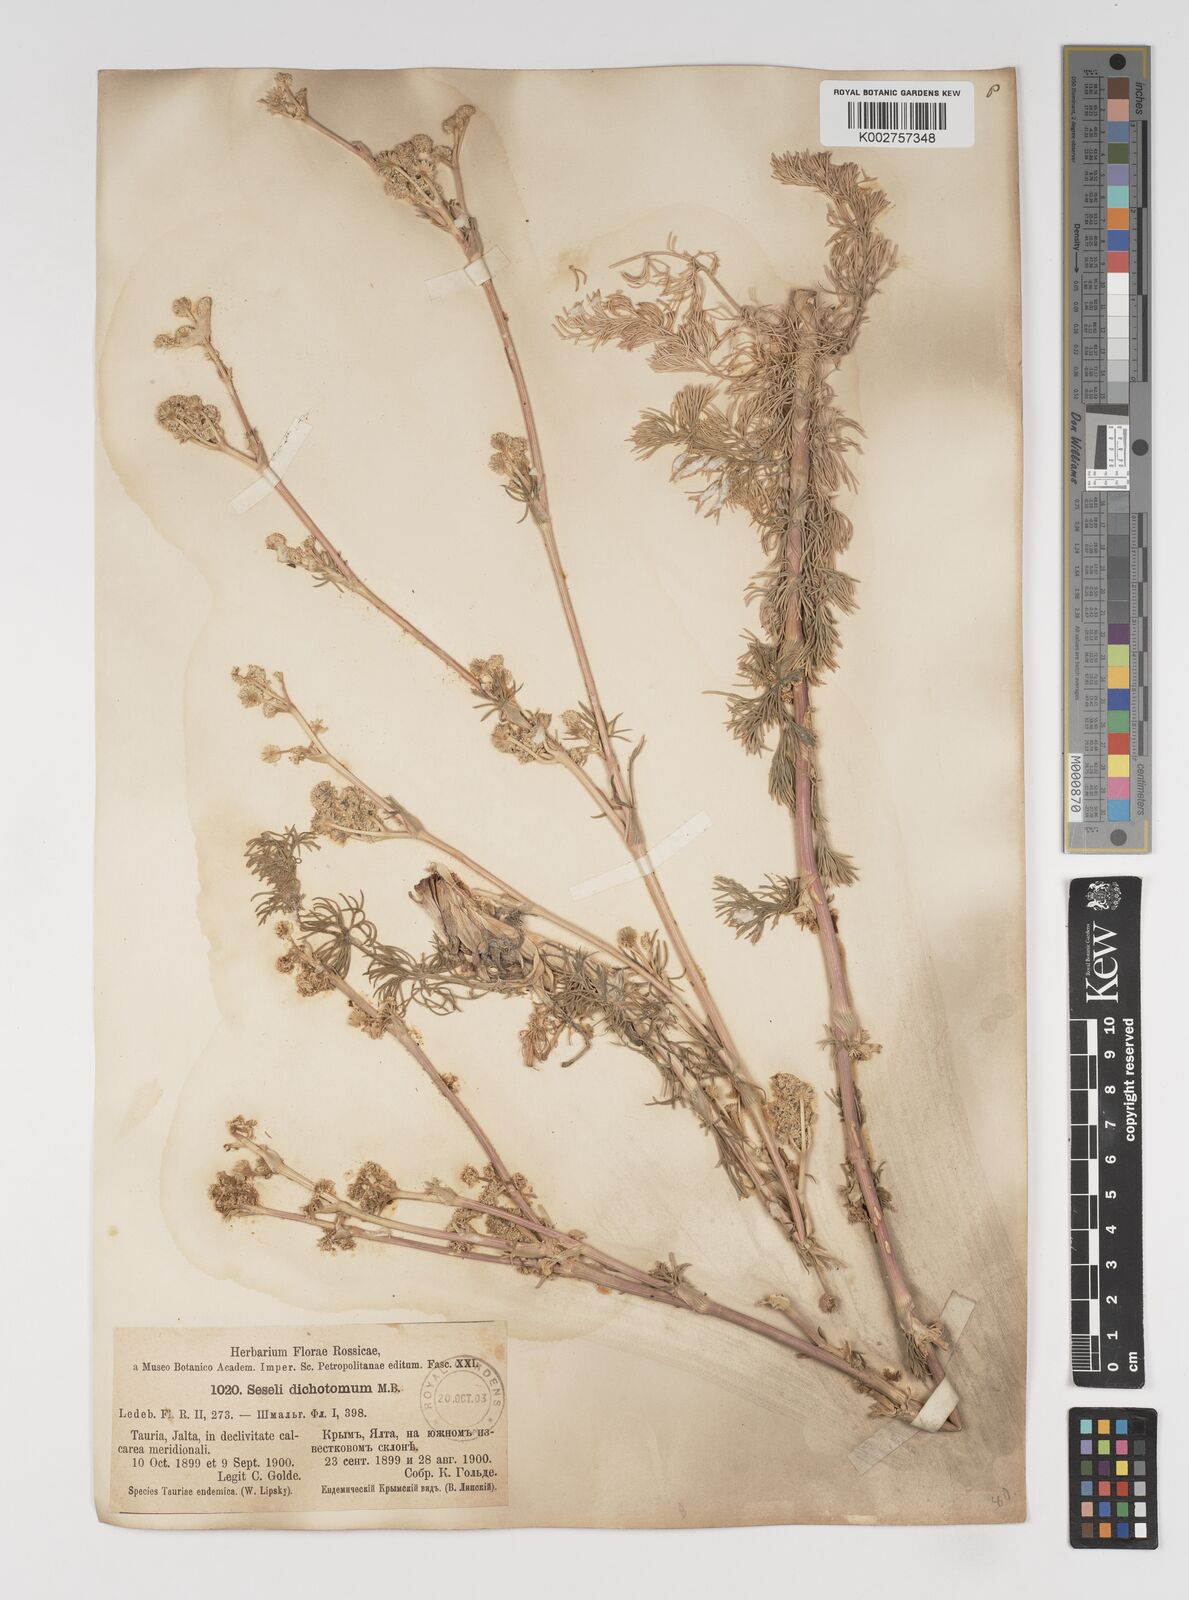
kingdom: Plantae
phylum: Tracheophyta
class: Magnoliopsida
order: Apiales
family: Apiaceae
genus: Hippomarathrum
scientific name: Hippomarathrum dichotomum
